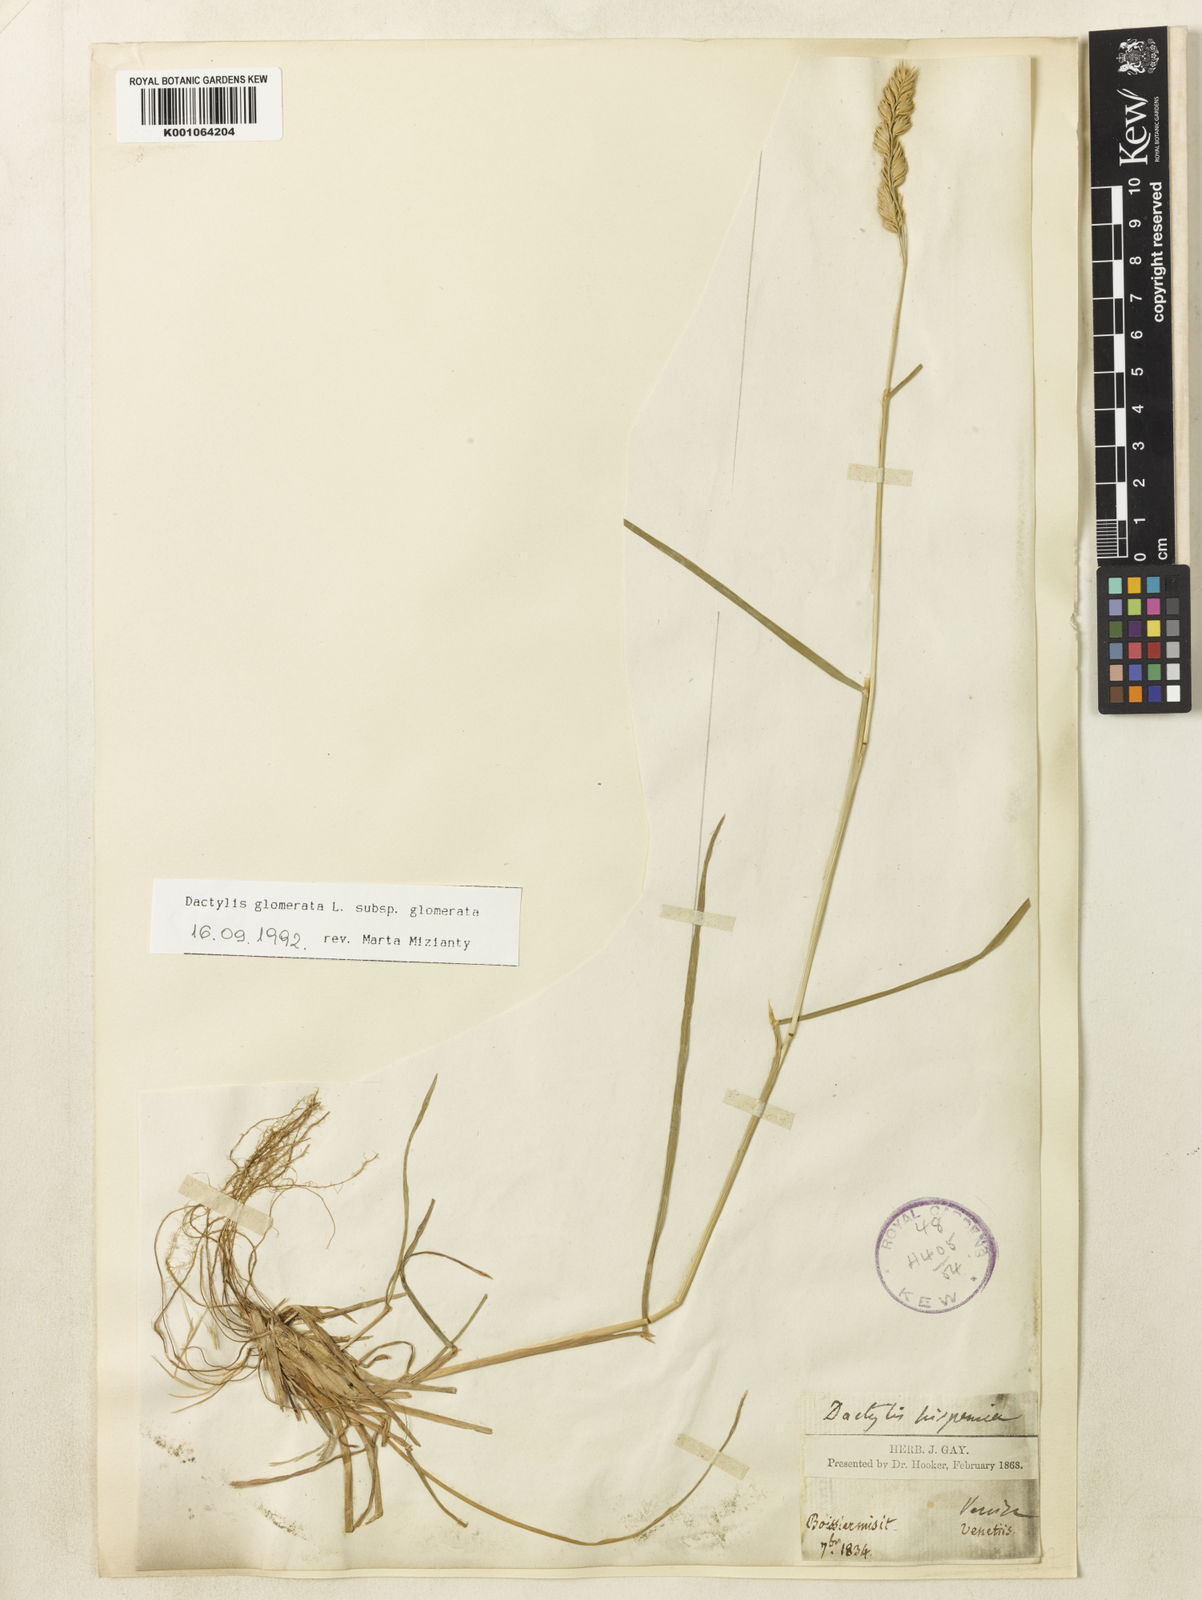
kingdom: Plantae
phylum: Tracheophyta
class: Liliopsida
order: Poales
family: Poaceae
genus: Dactylis
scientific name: Dactylis glomerata
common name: Orchardgrass
